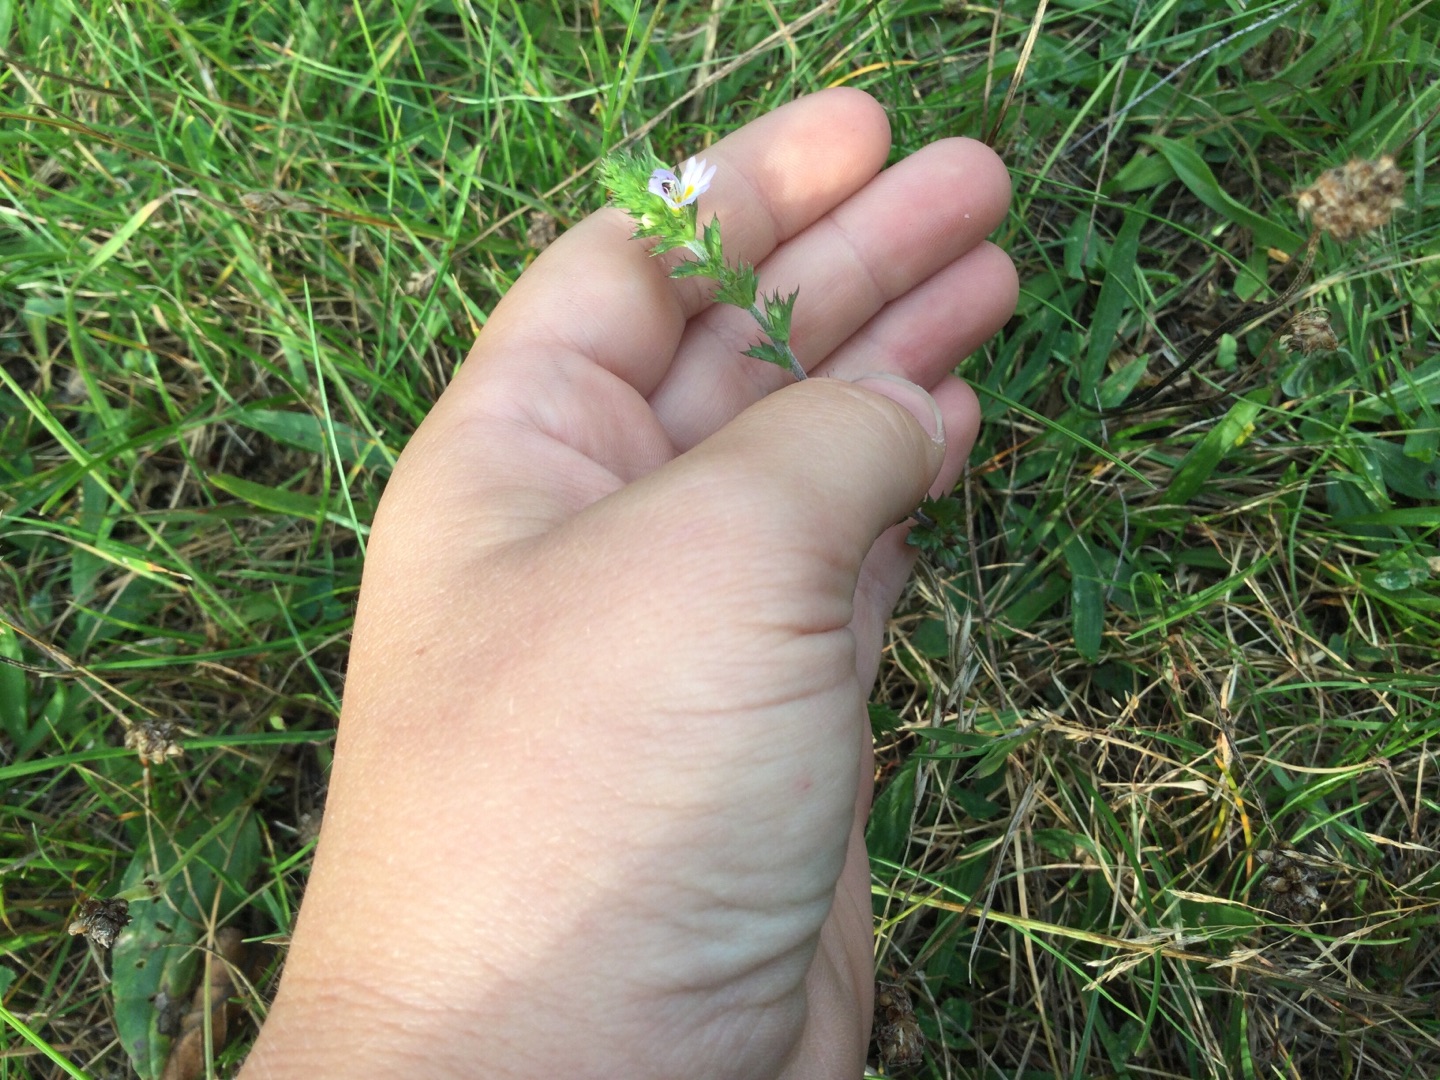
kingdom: Plantae
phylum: Tracheophyta
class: Magnoliopsida
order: Lamiales
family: Orobanchaceae
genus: Euphrasia
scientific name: Euphrasia stricta
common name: Spids øjentrøst
